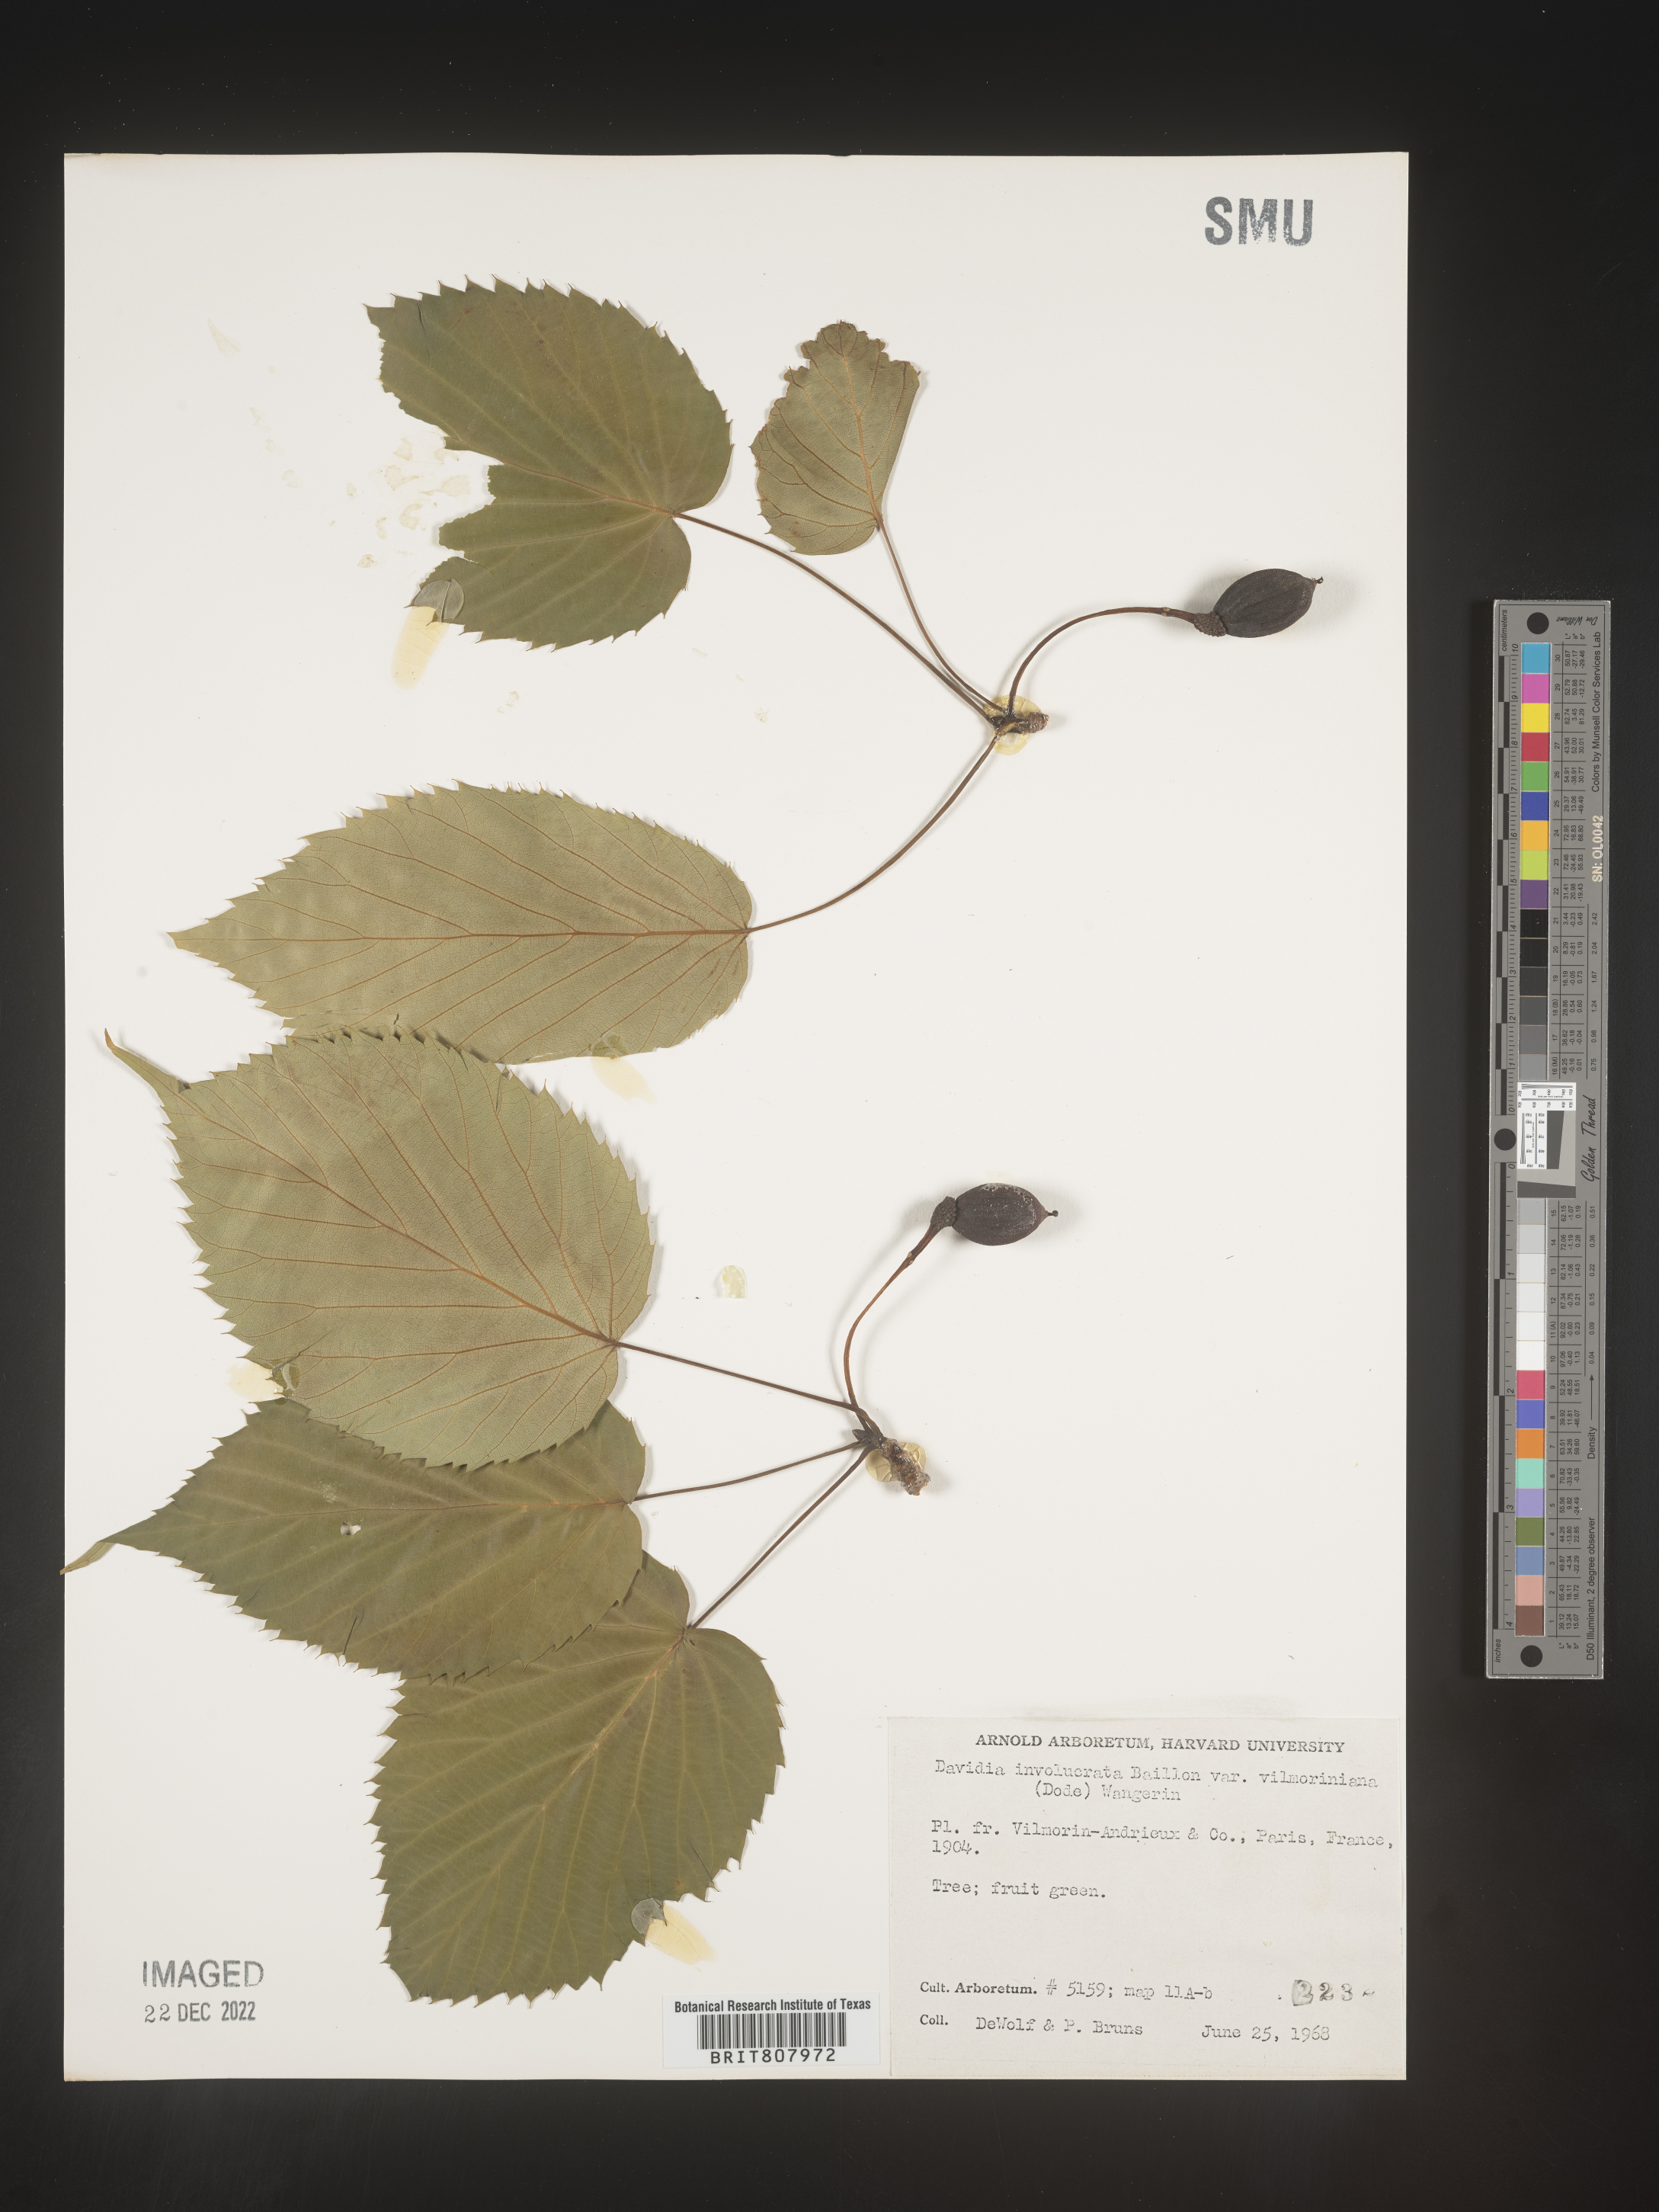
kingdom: Plantae
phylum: Tracheophyta
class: Magnoliopsida
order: Cornales
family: Nyssaceae
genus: Davidia
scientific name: Davidia
